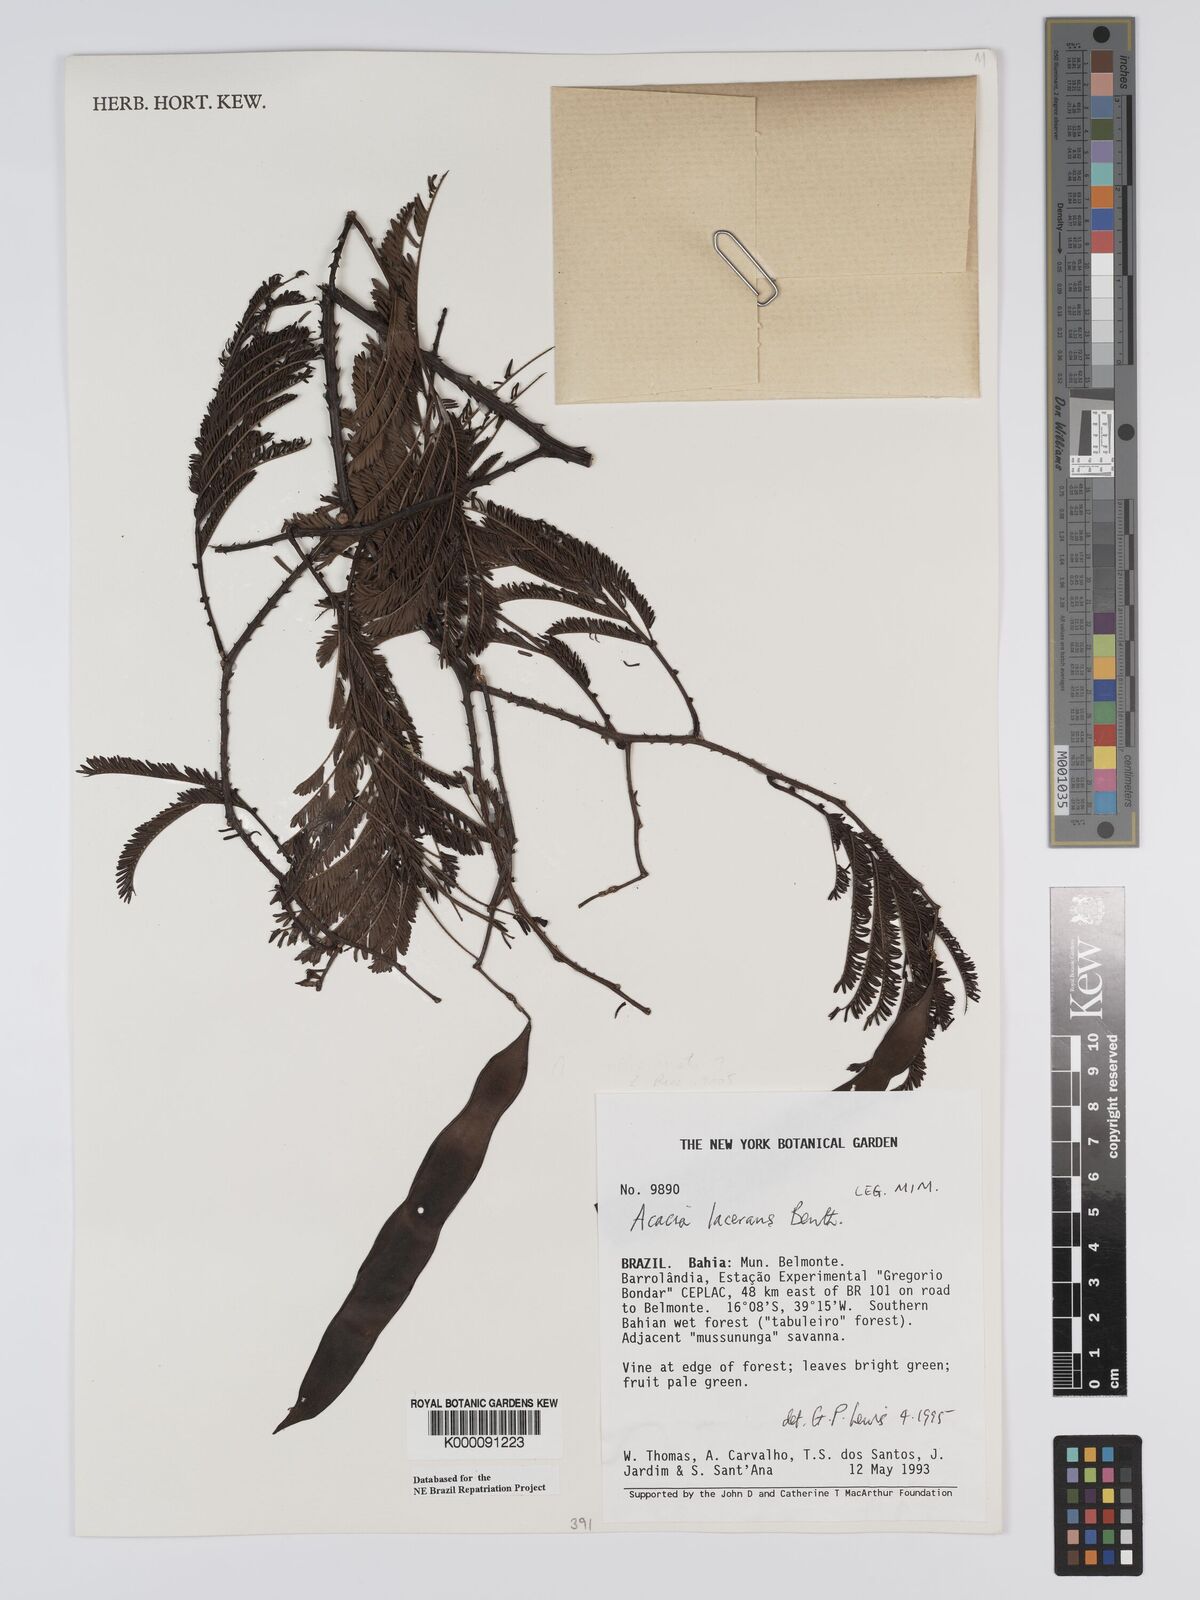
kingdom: Plantae
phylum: Tracheophyta
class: Magnoliopsida
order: Fabales
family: Fabaceae
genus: Senegalia
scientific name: Senegalia lacerans
